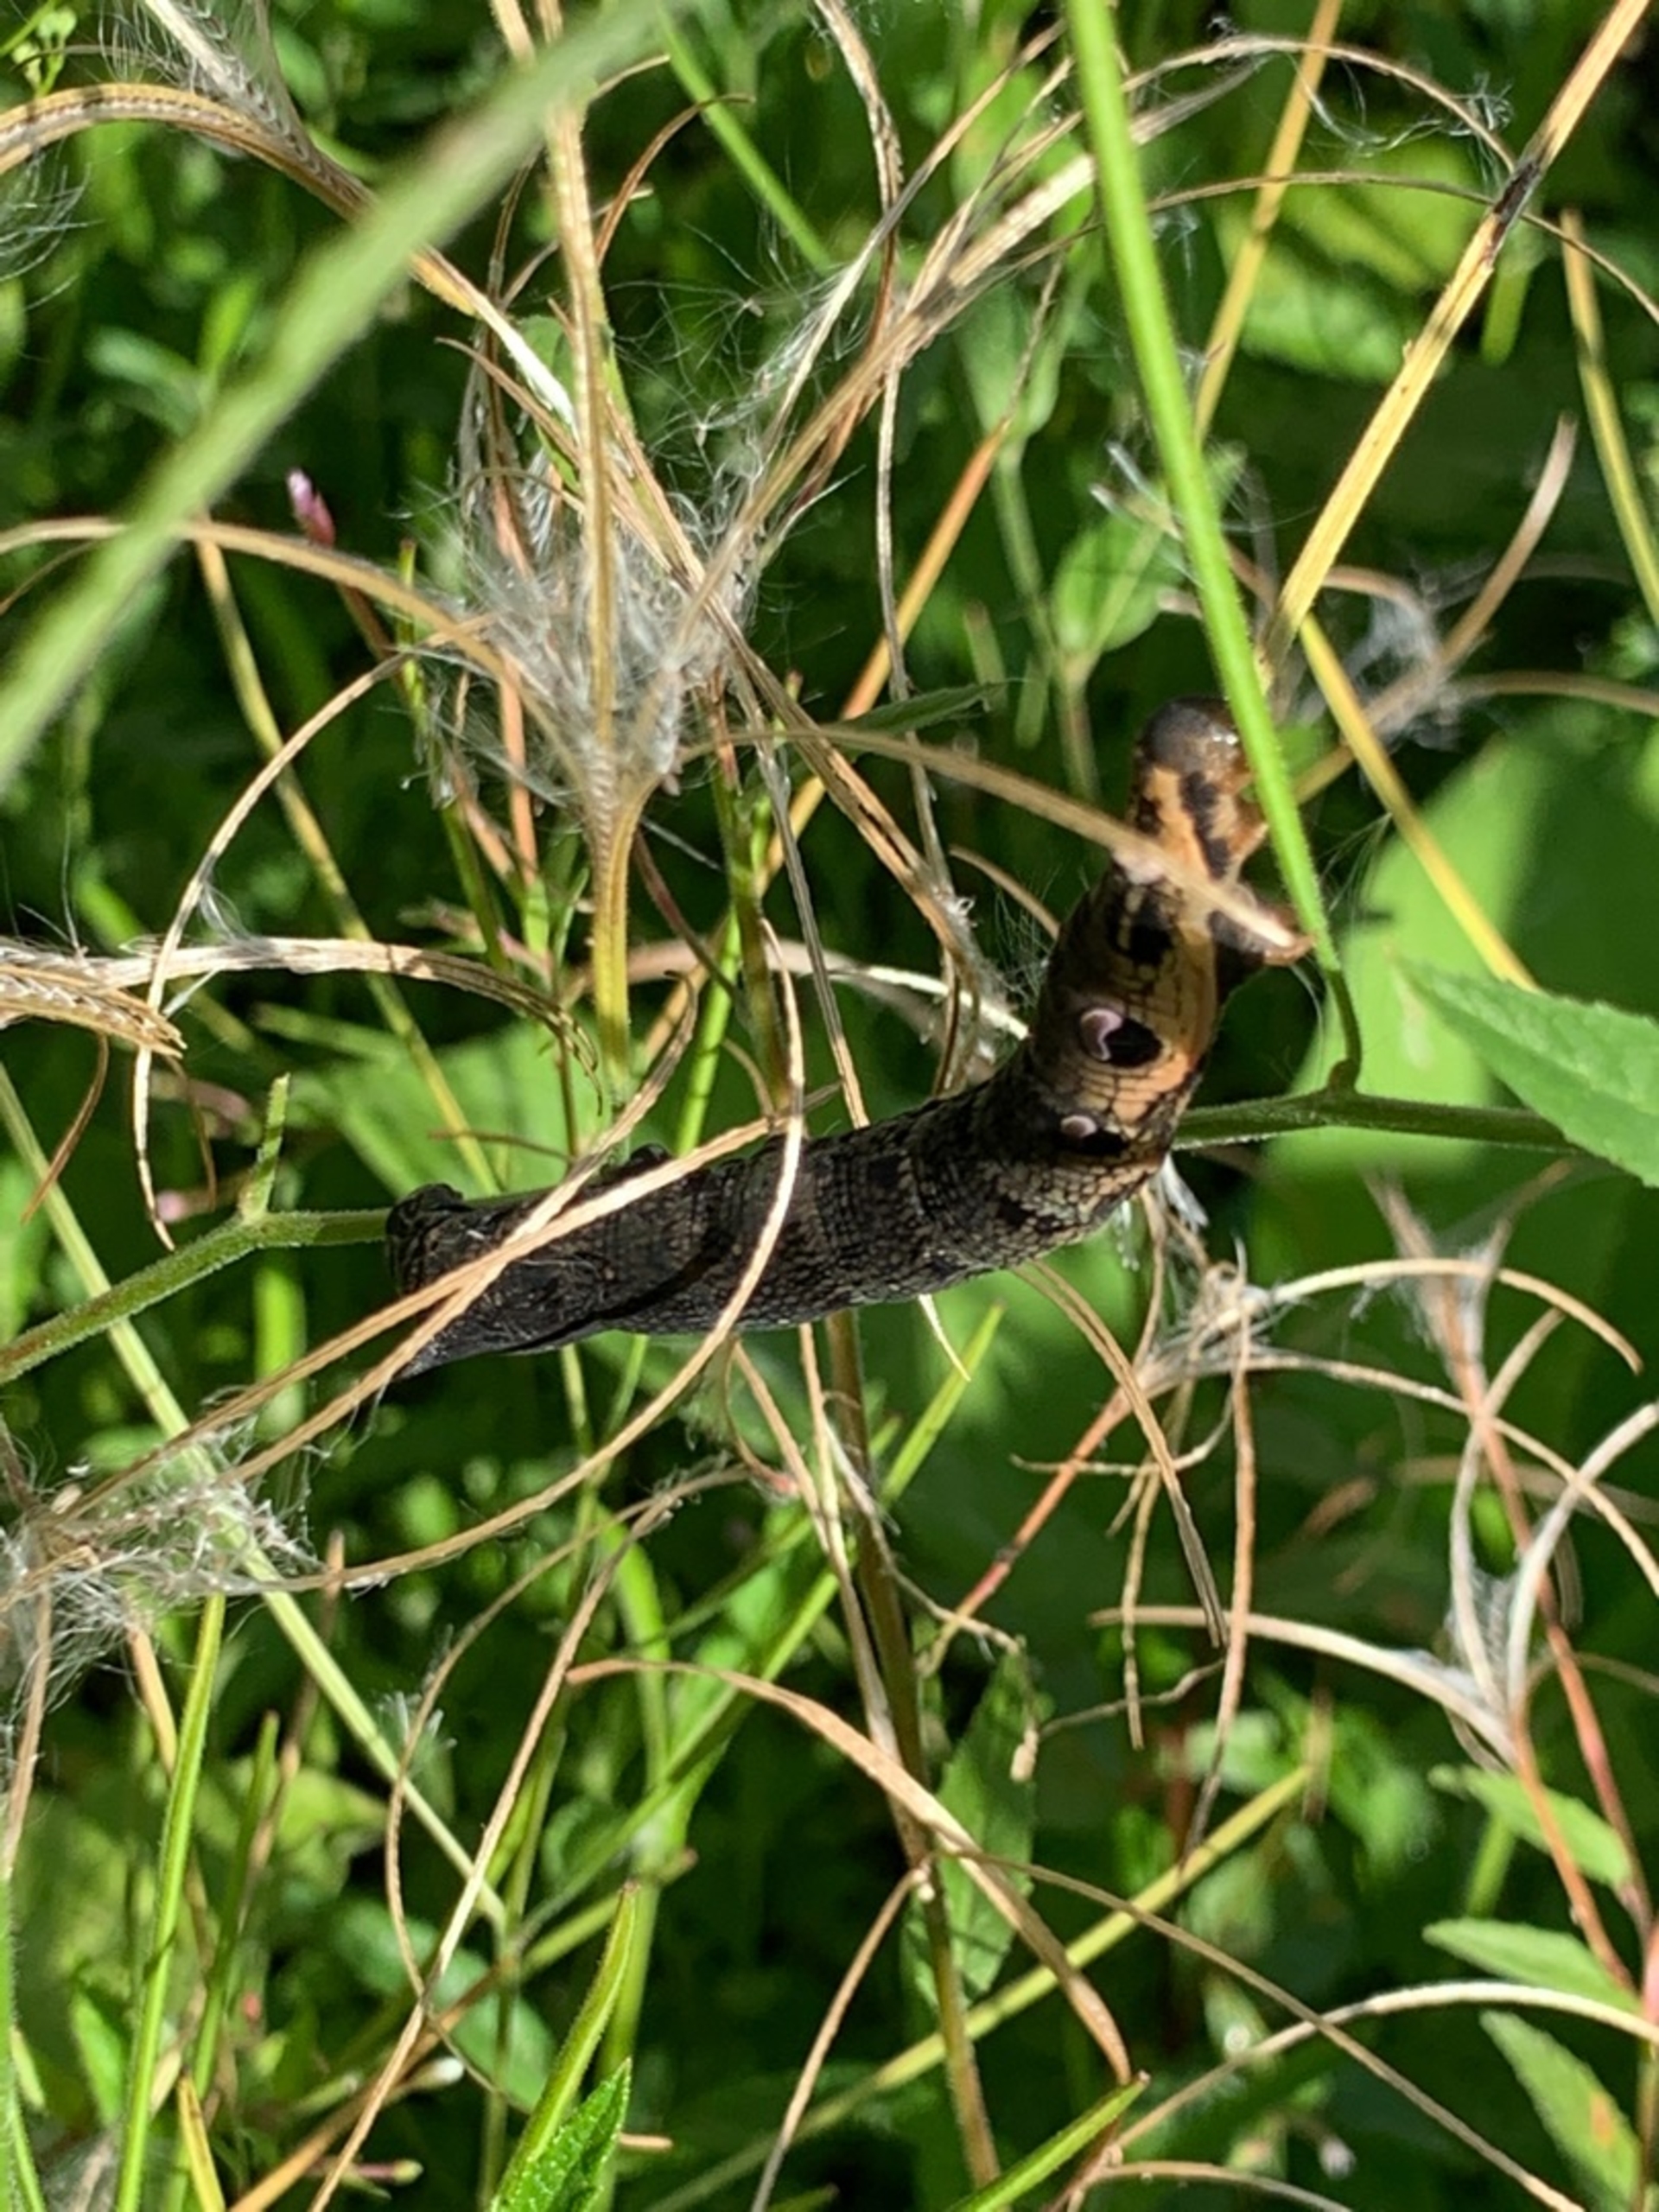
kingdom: Animalia
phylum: Arthropoda
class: Insecta
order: Lepidoptera
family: Sphingidae
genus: Deilephila
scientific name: Deilephila elpenor
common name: Dueurtsværmer
